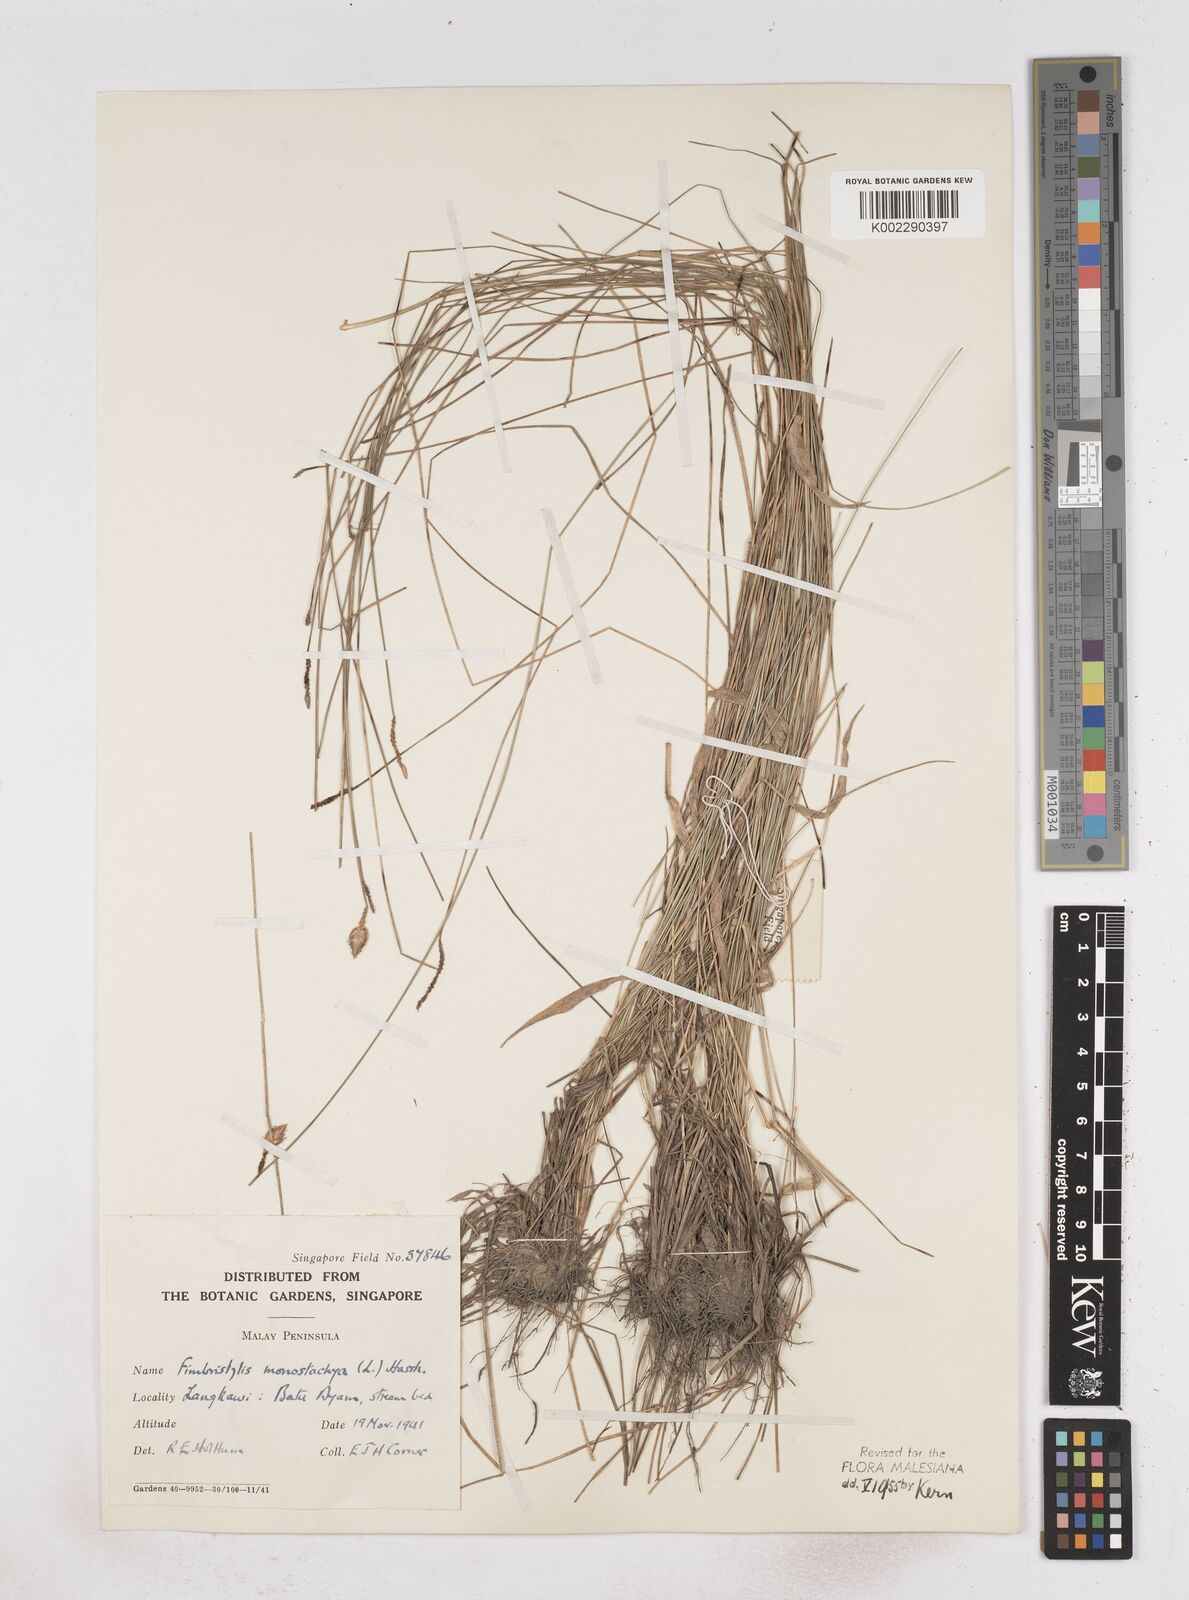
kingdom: Plantae
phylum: Tracheophyta
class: Liliopsida
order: Poales
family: Cyperaceae
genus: Abildgaardia
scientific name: Abildgaardia ovata
